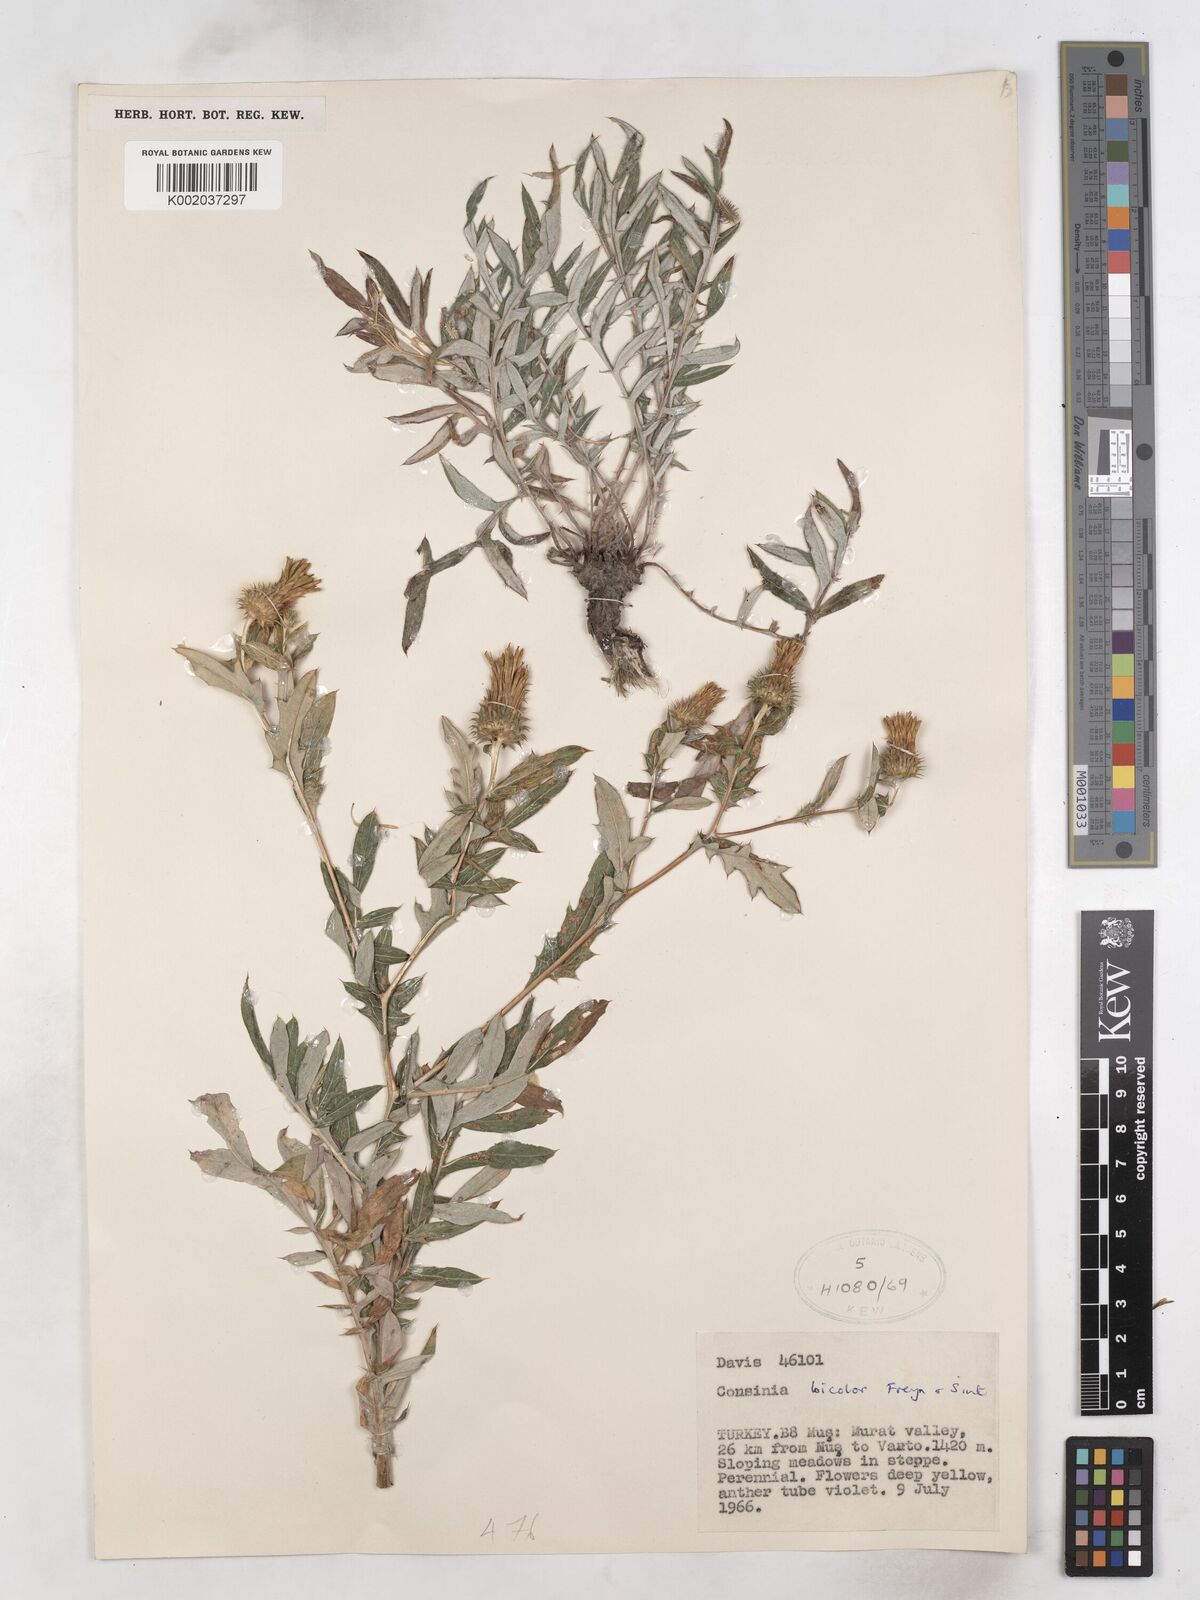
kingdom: Plantae
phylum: Tracheophyta
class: Magnoliopsida
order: Asterales
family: Asteraceae
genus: Cousinia
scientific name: Cousinia bicolor
